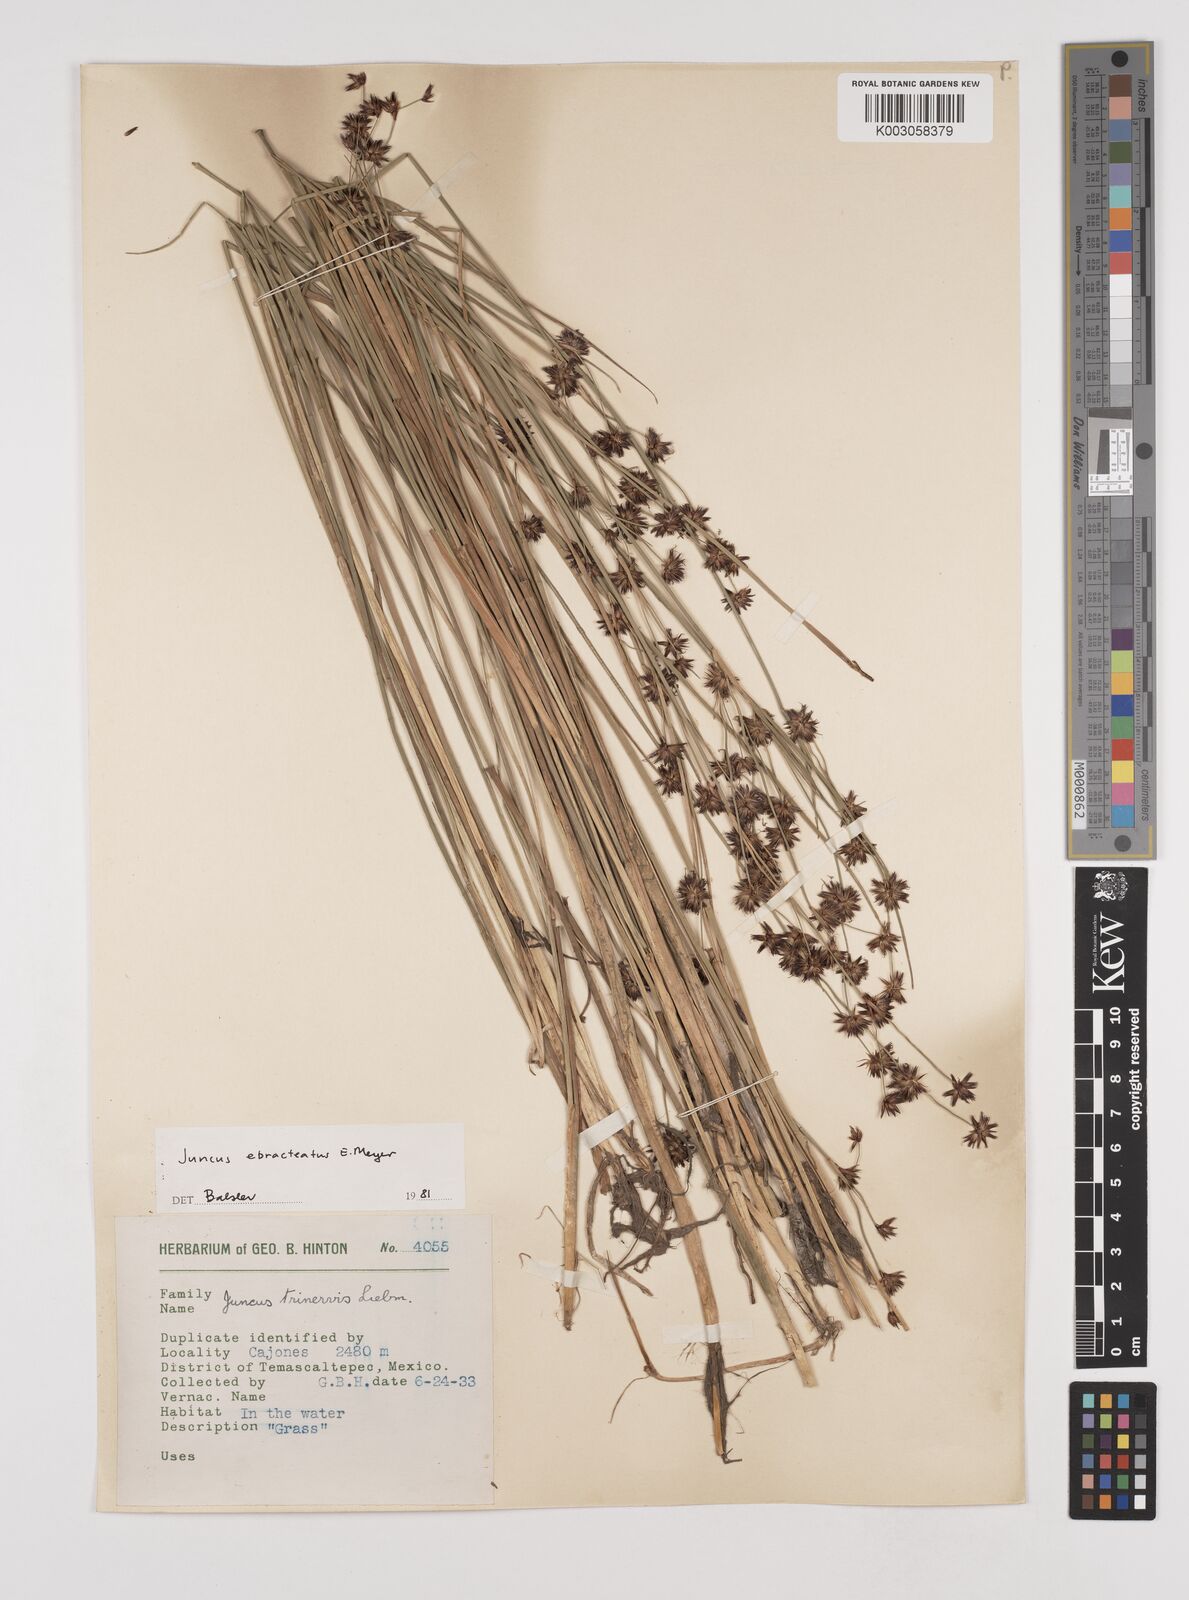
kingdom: Plantae
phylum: Tracheophyta
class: Liliopsida
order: Poales
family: Juncaceae
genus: Juncus
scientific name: Juncus ebracteatus
